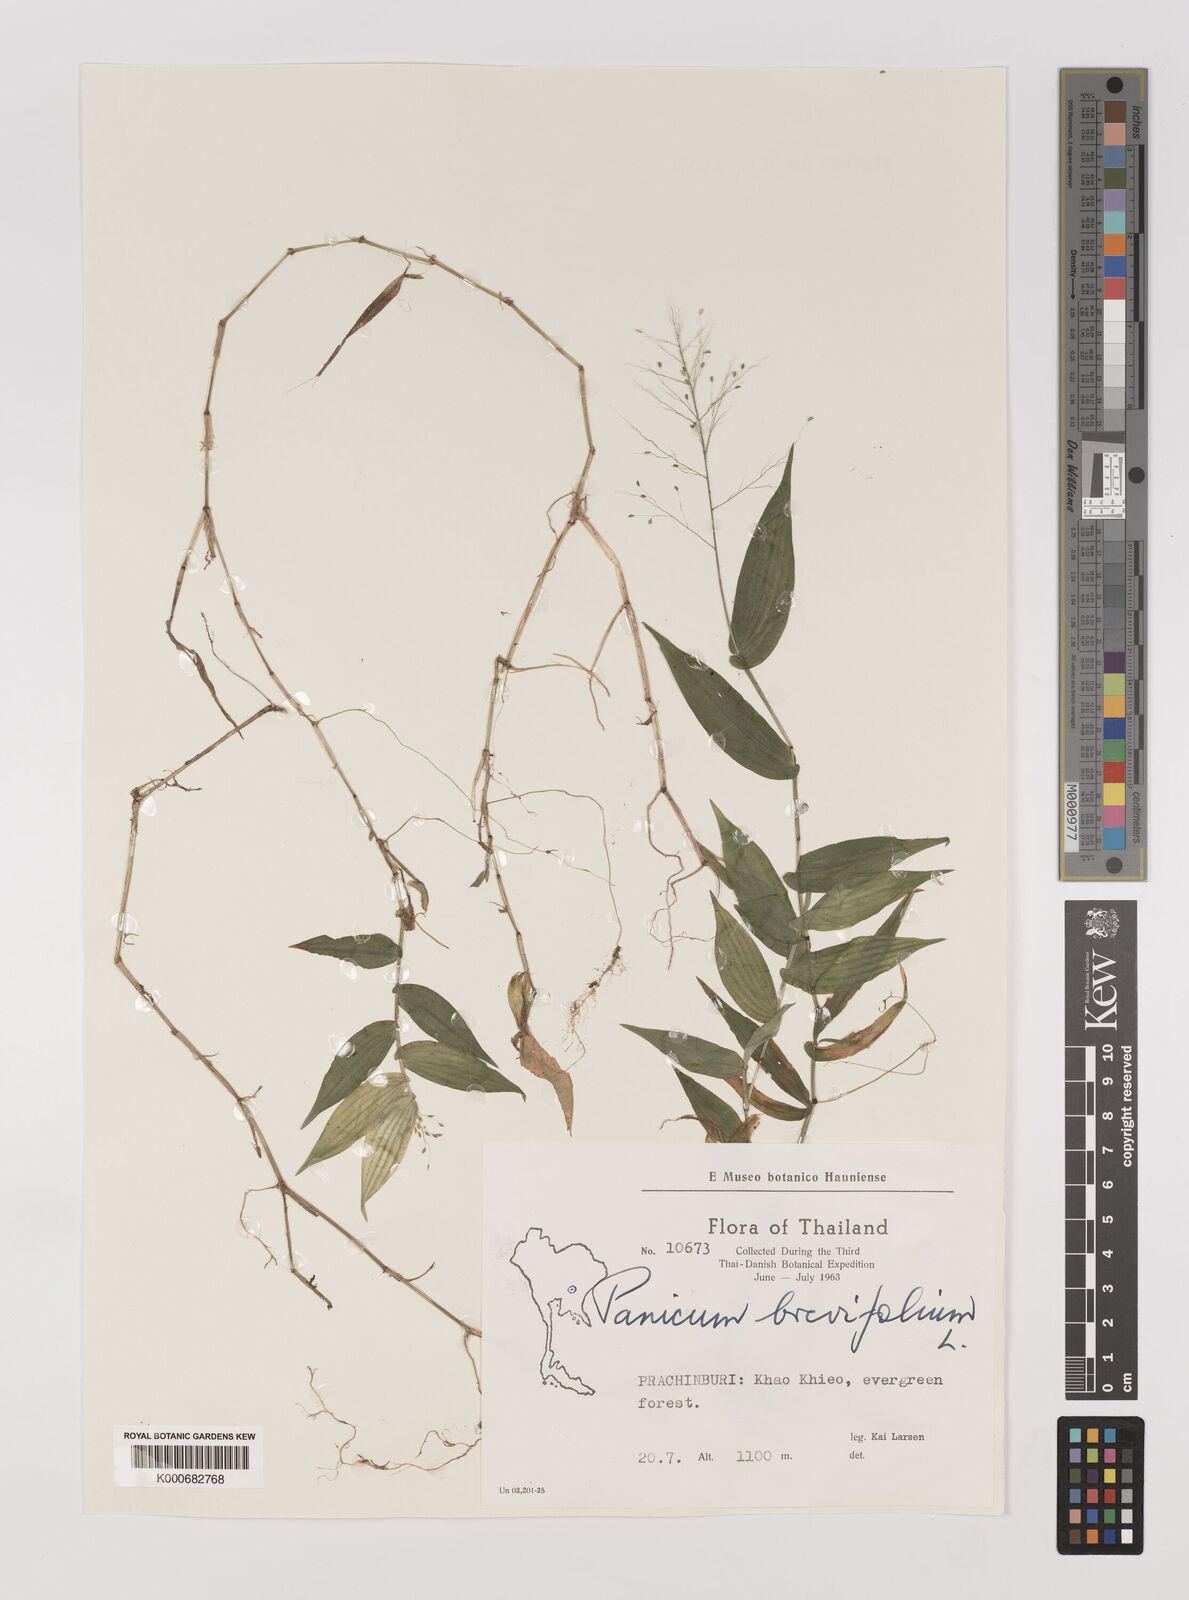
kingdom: Plantae
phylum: Tracheophyta
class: Liliopsida
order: Poales
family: Poaceae
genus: Panicum
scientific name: Panicum brevifolium
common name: Shortleaf panic grass
